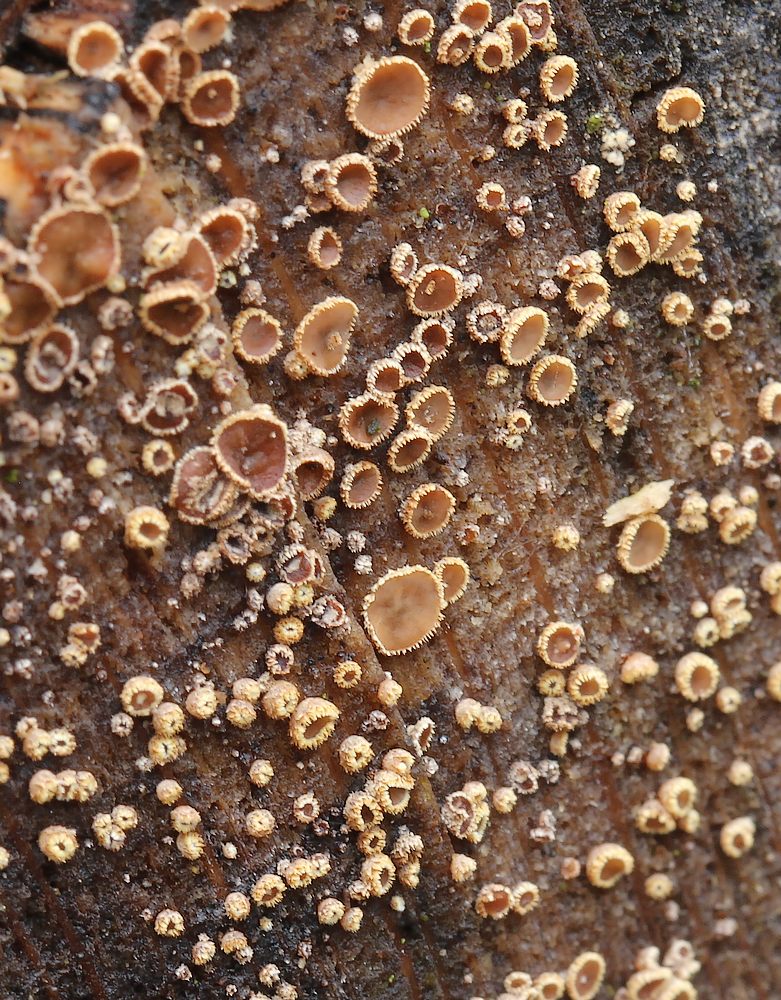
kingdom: Fungi
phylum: Ascomycota
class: Leotiomycetes
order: Helotiales
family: Lachnaceae
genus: Trichopeziza
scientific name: Trichopeziza subsulphurea
